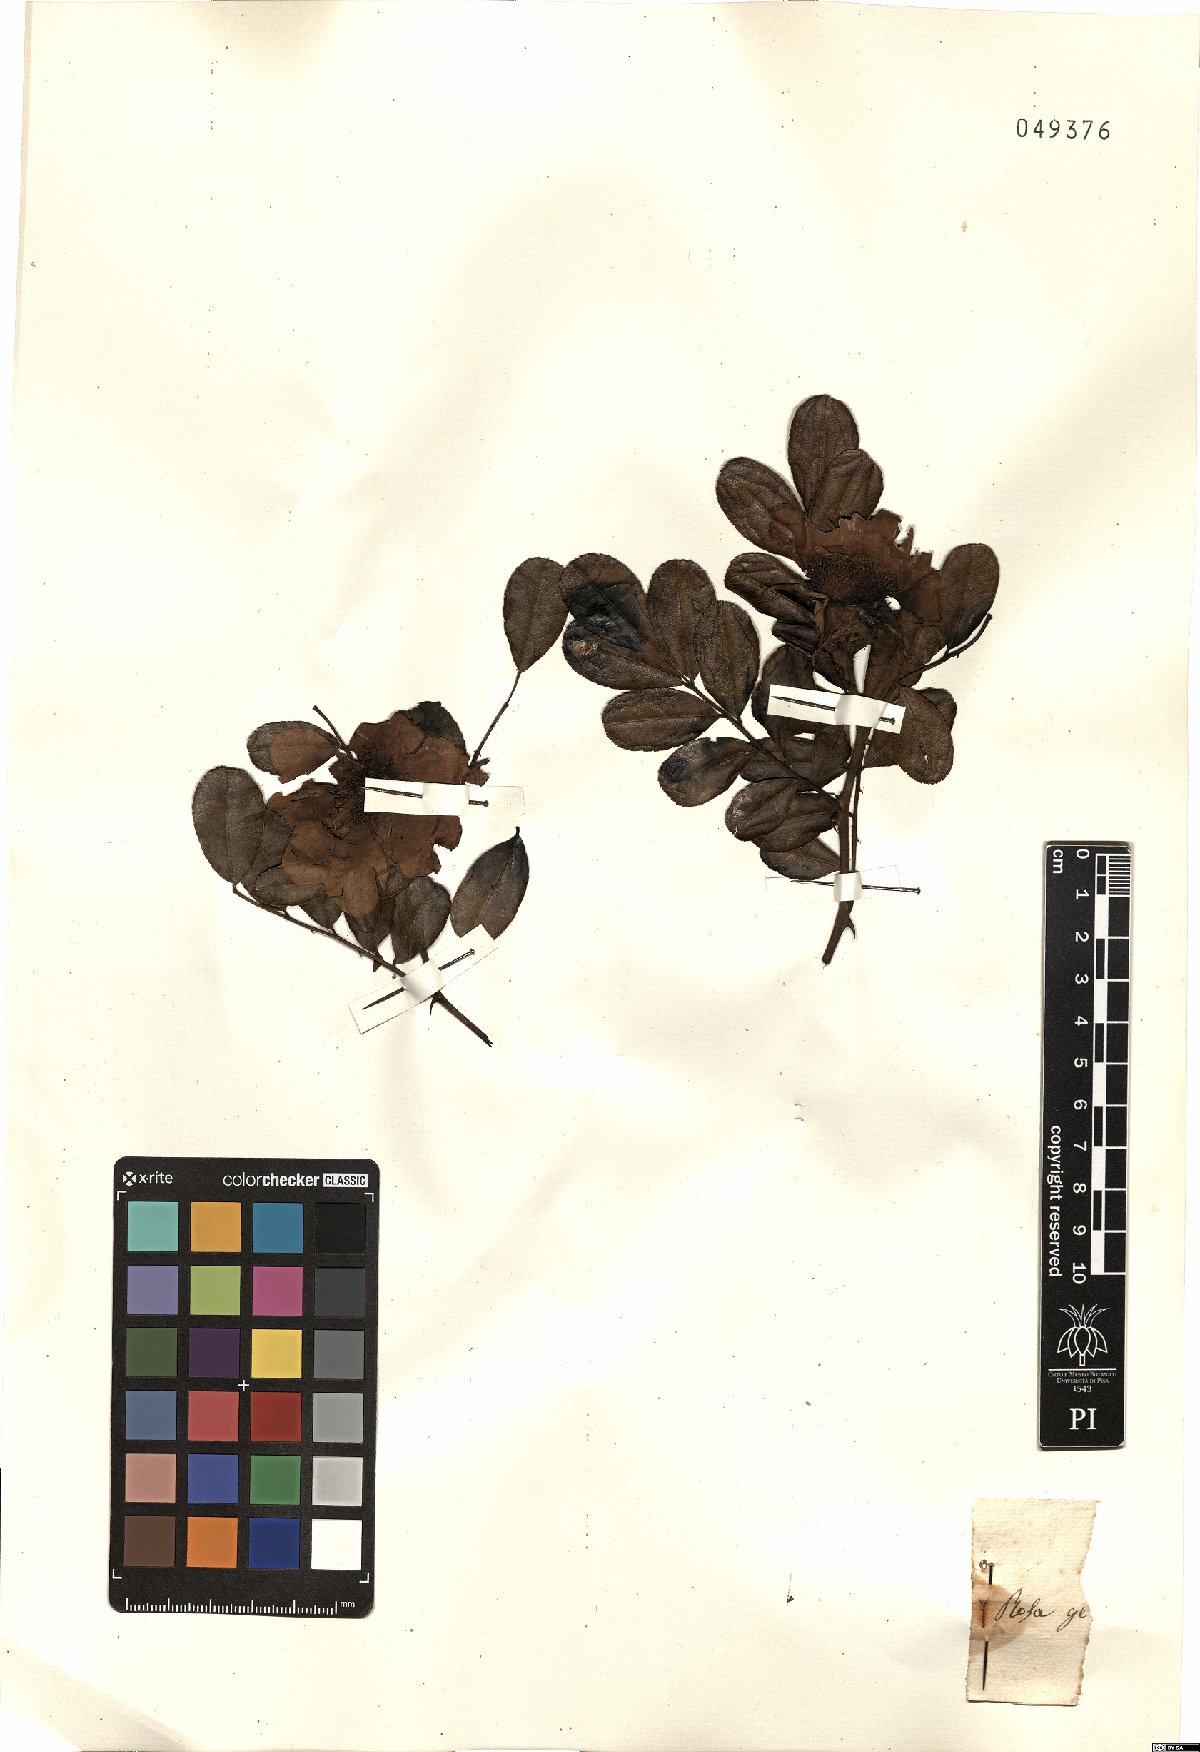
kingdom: Plantae
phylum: Tracheophyta
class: Magnoliopsida
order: Rosales
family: Rosaceae
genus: Rosa
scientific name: Rosa
